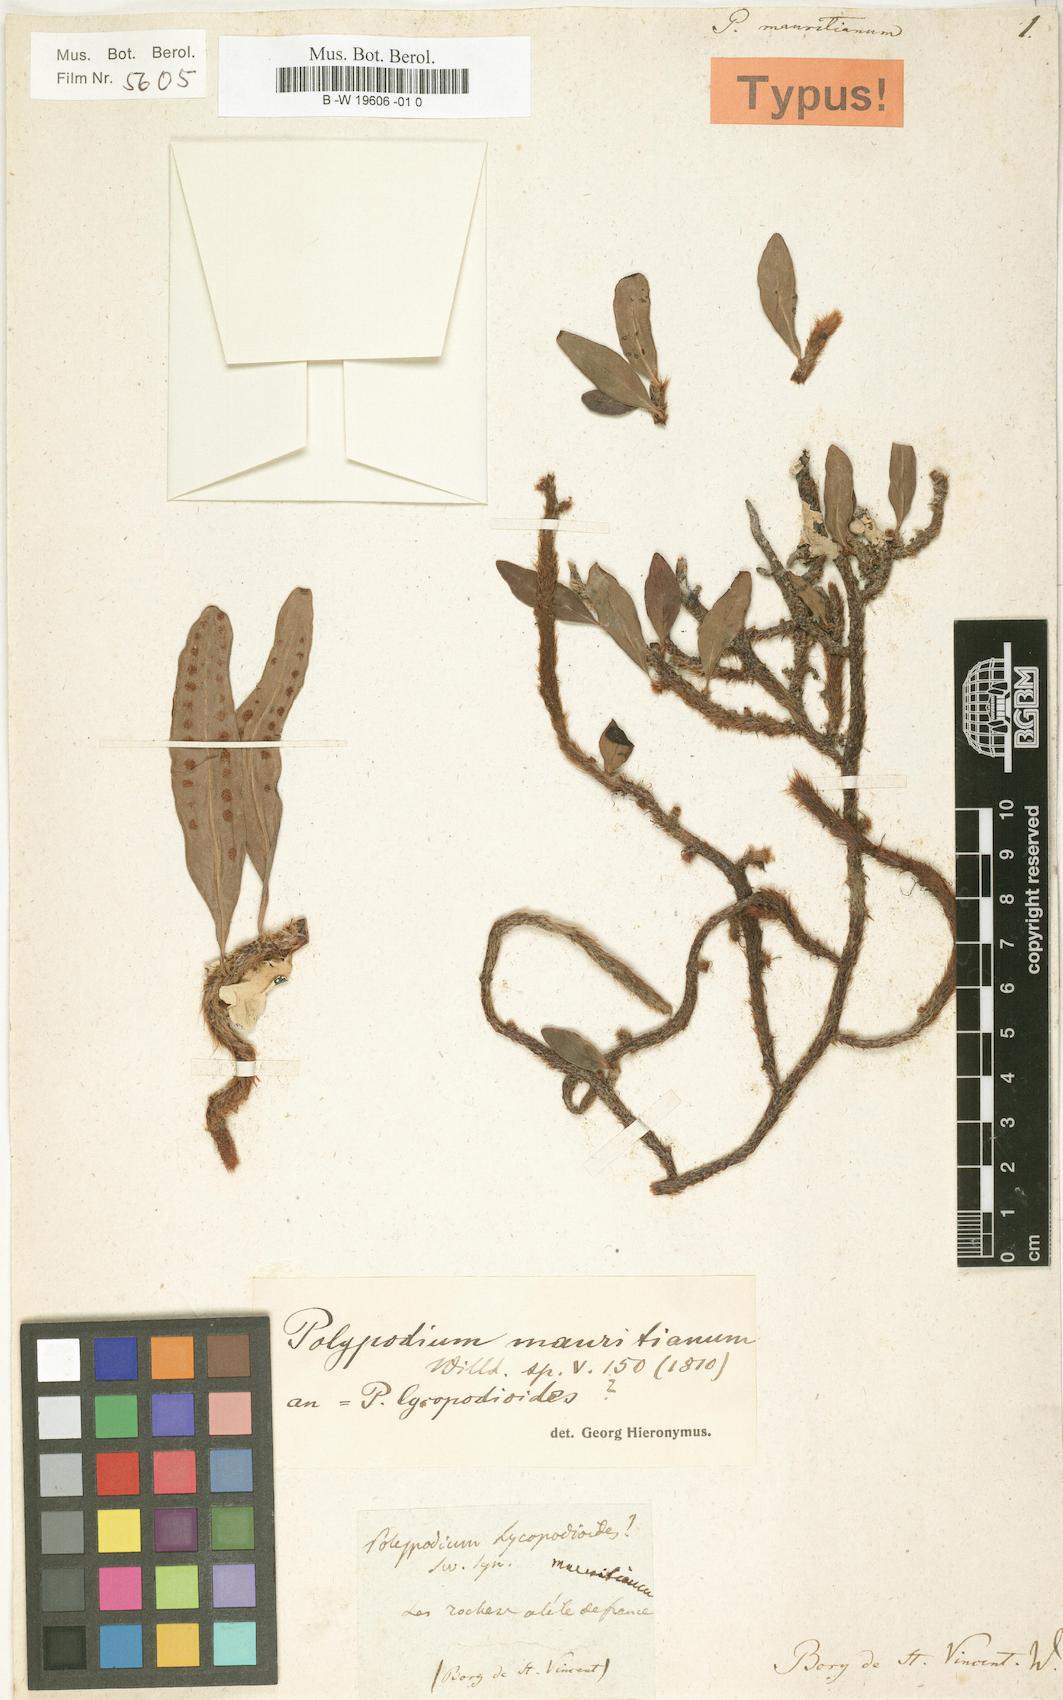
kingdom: Plantae
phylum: Tracheophyta
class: Polypodiopsida
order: Polypodiales
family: Polypodiaceae
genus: Microgramma
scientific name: Microgramma mauritiana
